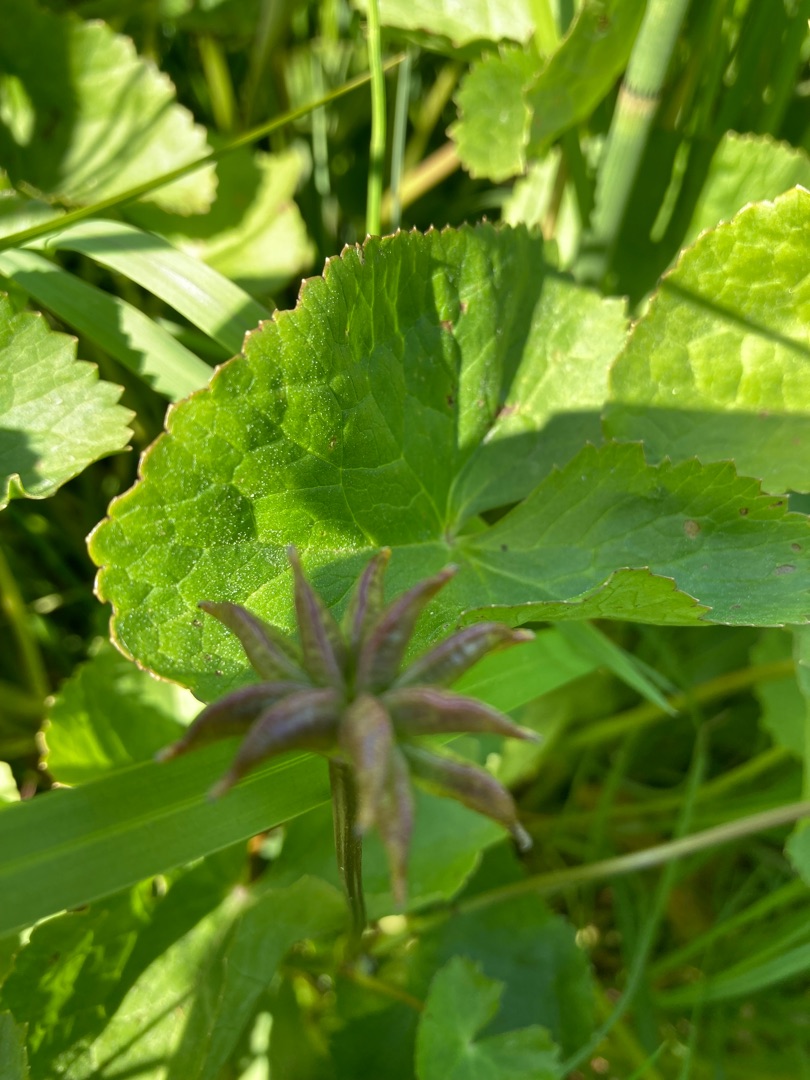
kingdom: Plantae
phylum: Tracheophyta
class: Magnoliopsida
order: Ranunculales
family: Ranunculaceae
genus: Caltha
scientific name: Caltha palustris
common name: Eng-kabbeleje
